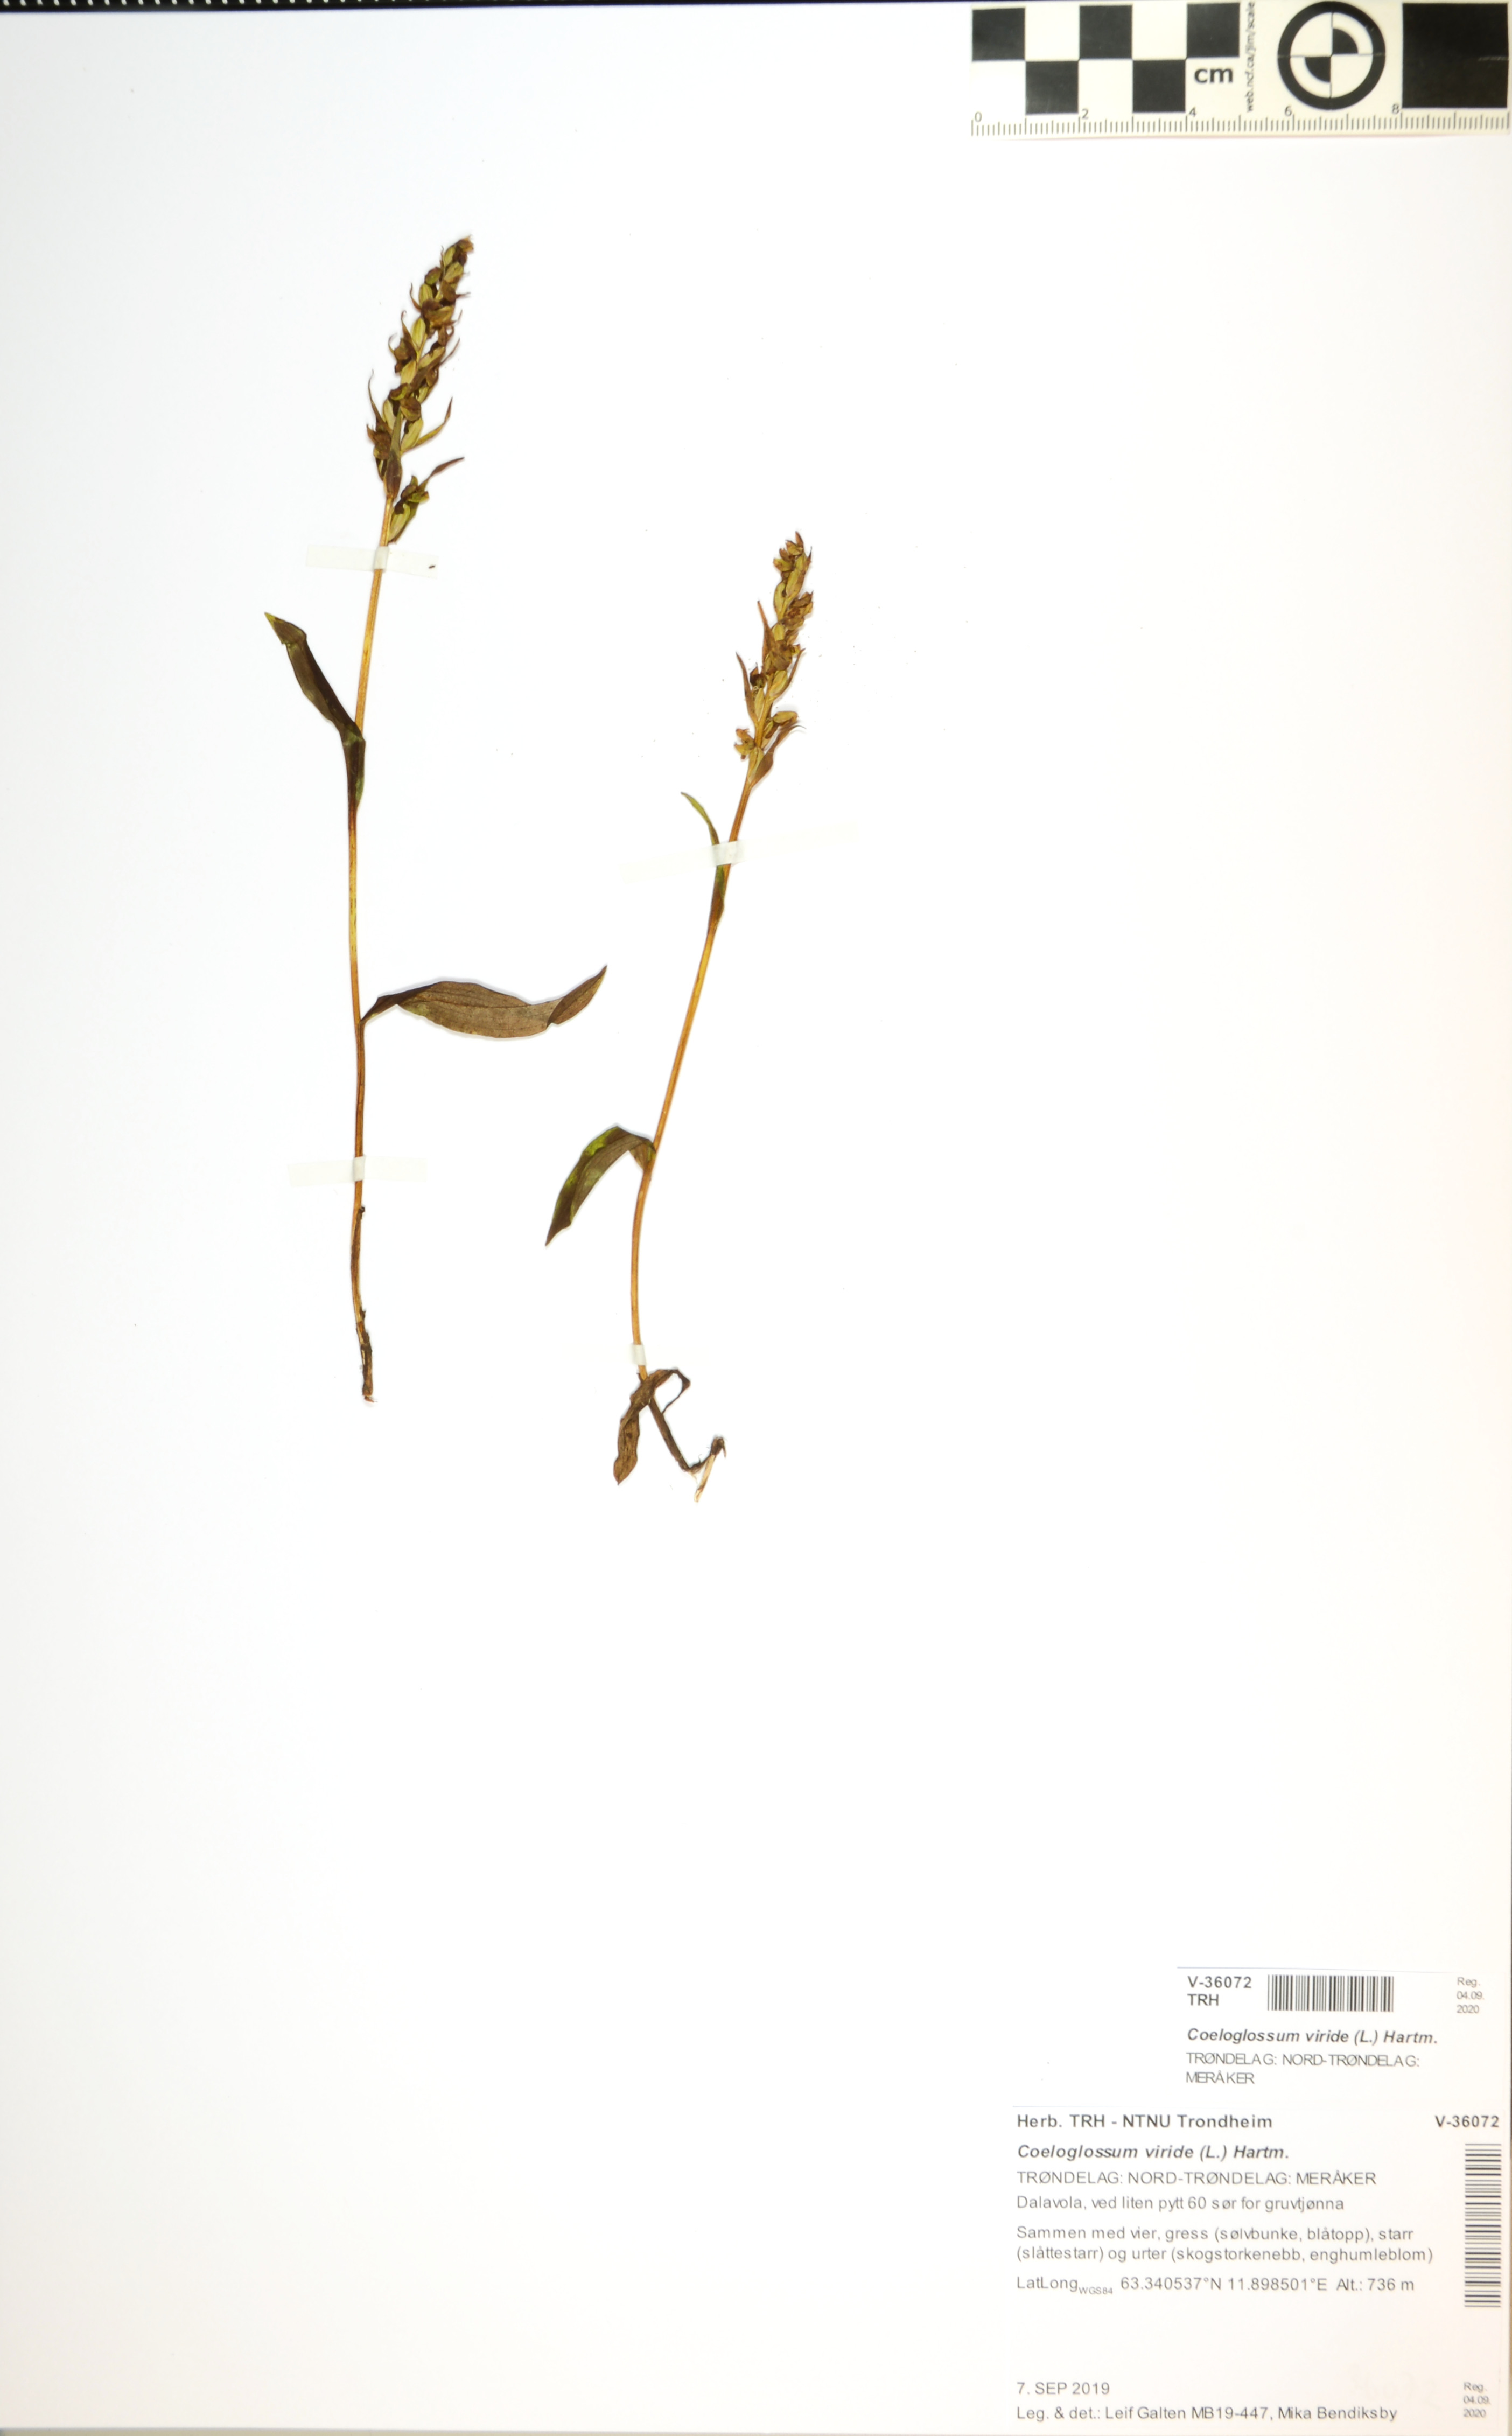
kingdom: Plantae
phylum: Tracheophyta
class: Liliopsida
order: Asparagales
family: Orchidaceae
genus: Dactylorhiza
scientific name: Dactylorhiza viridis
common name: Longbract frog orchid
